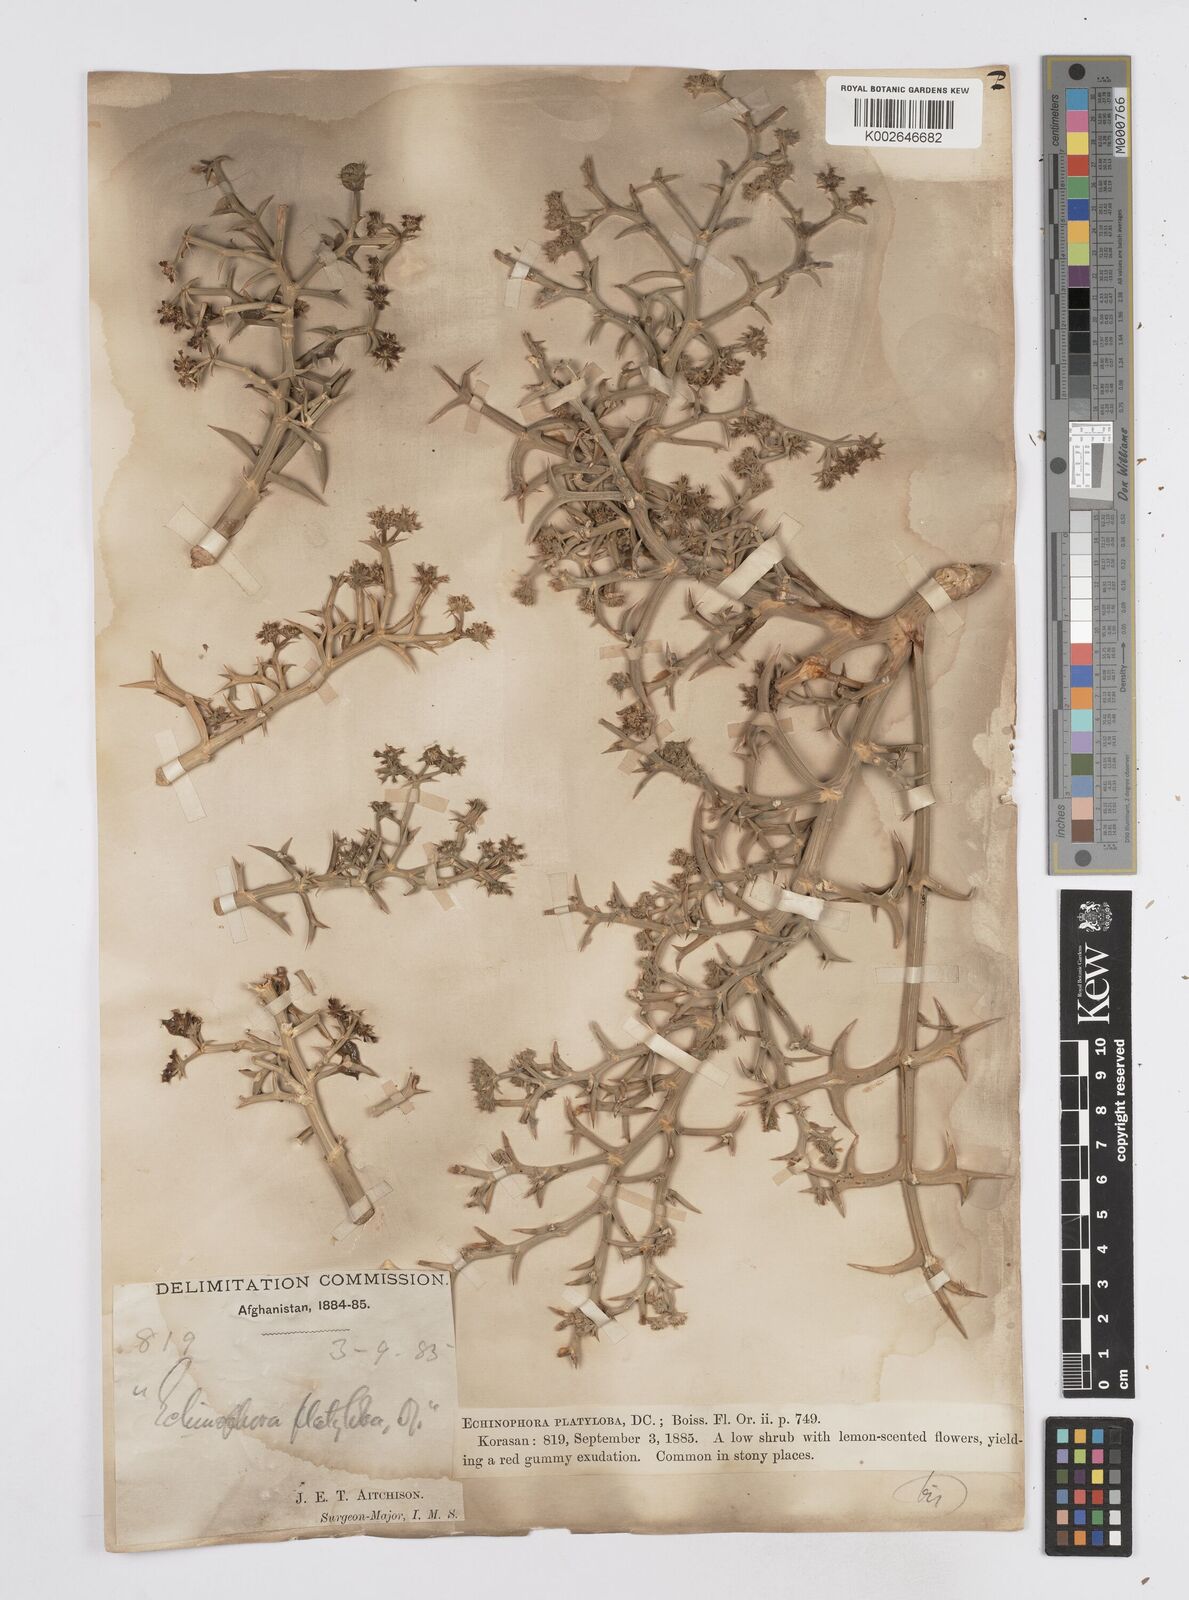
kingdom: Plantae
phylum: Tracheophyta
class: Magnoliopsida
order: Apiales
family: Apiaceae
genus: Echinophora
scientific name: Echinophora platyloba
